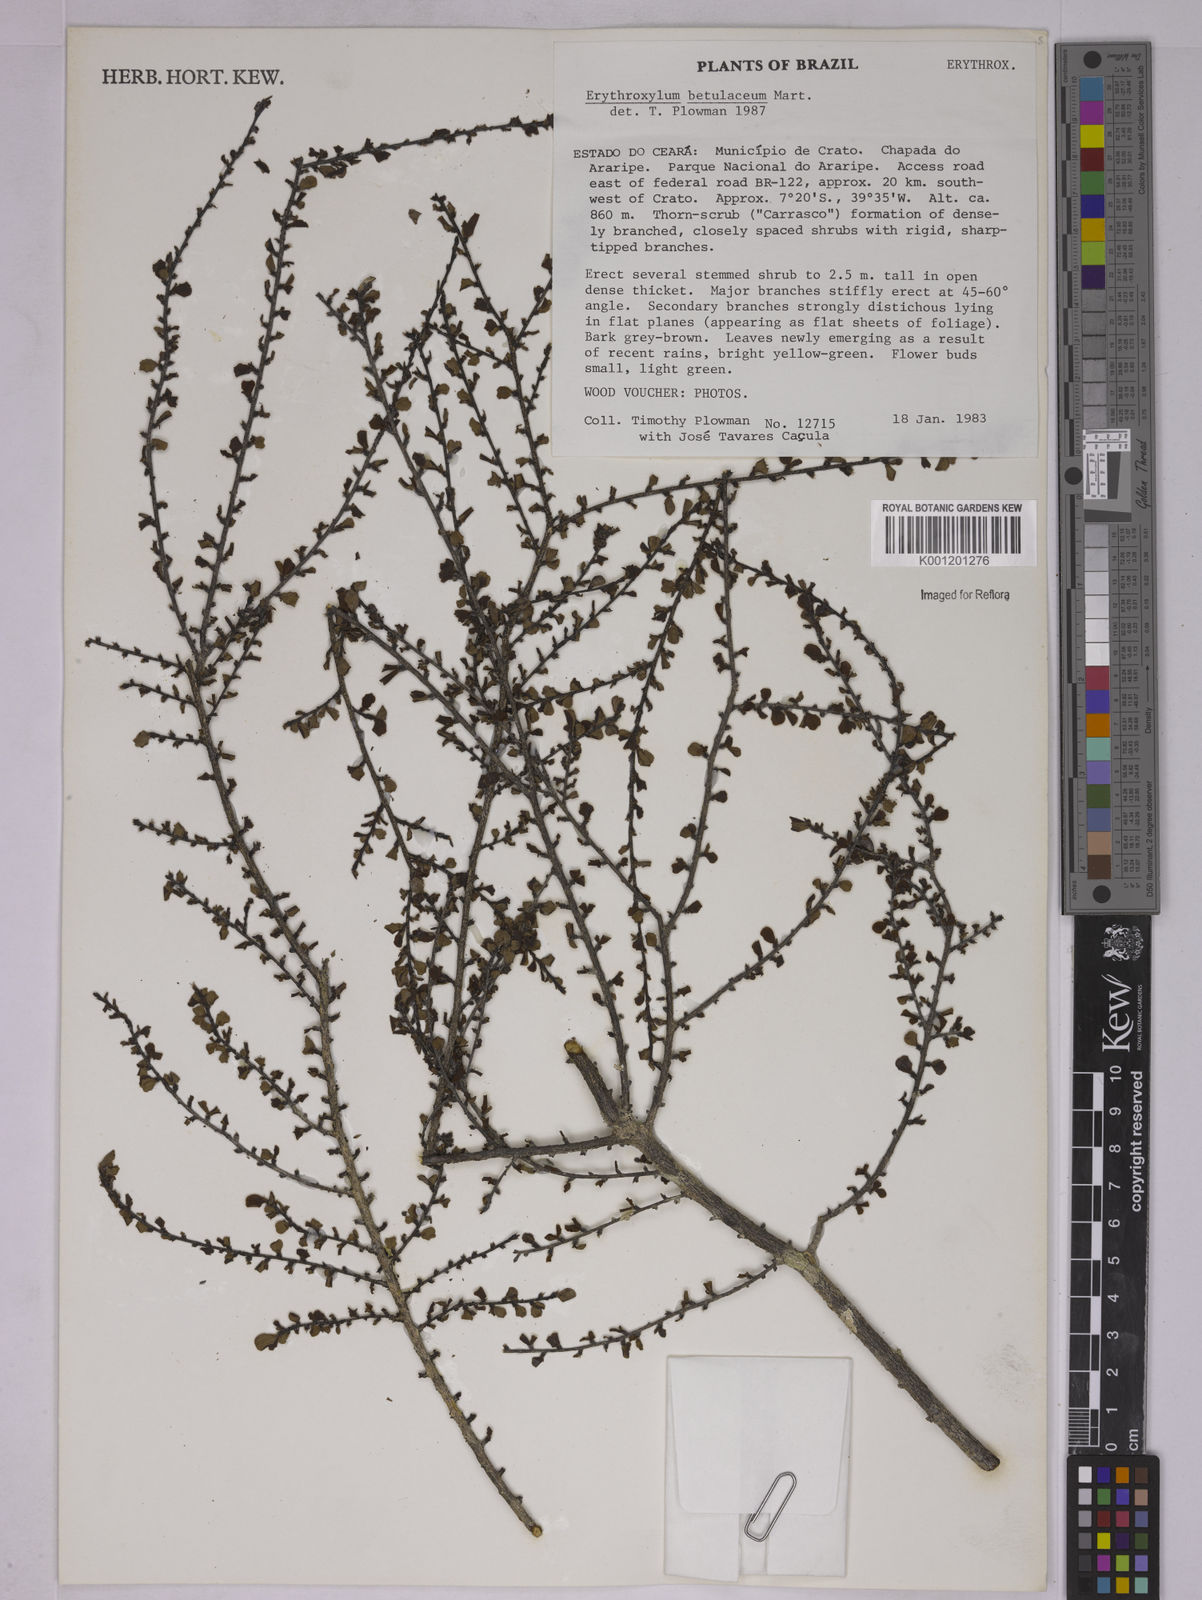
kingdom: Plantae
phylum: Tracheophyta
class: Magnoliopsida
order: Malpighiales
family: Erythroxylaceae
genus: Erythroxylum
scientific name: Erythroxylum betulaceum
